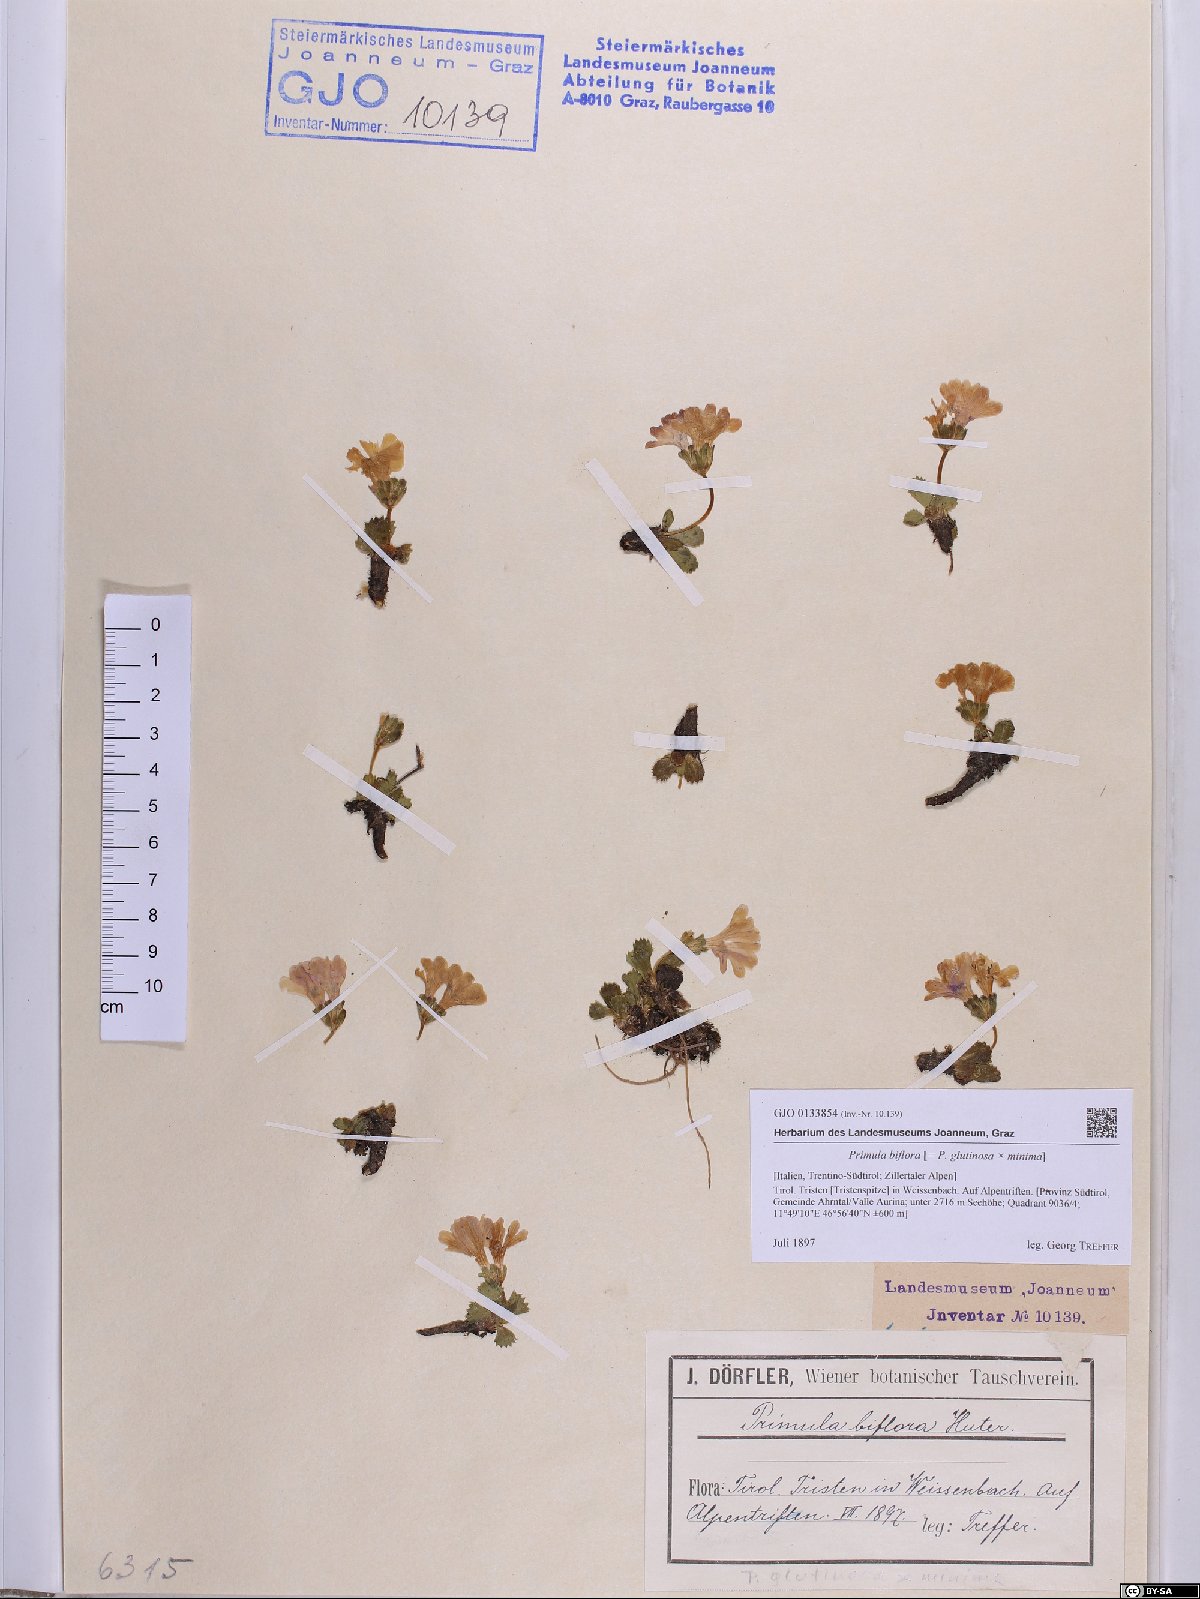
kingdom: Plantae
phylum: Tracheophyta
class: Magnoliopsida
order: Ericales
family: Primulaceae
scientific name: Primulaceae
